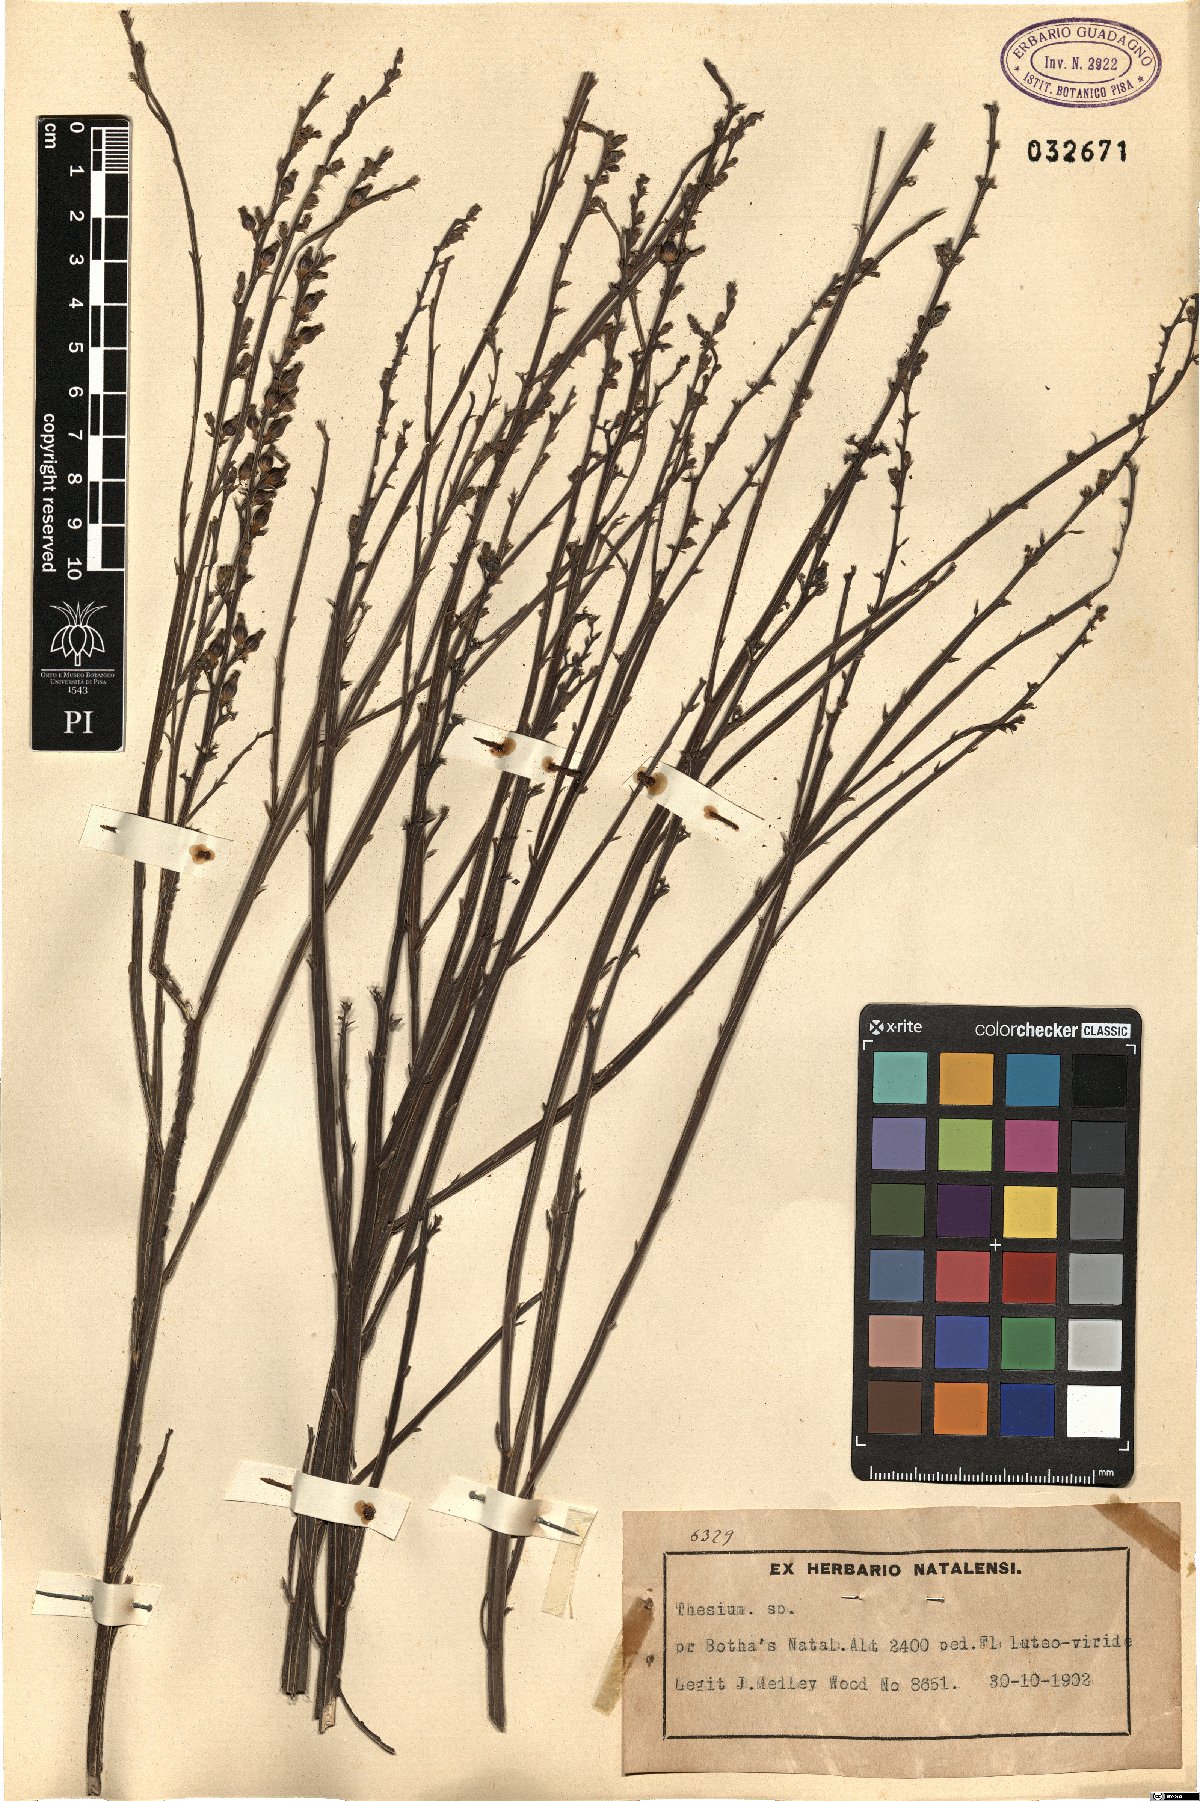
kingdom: Plantae
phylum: Tracheophyta
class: Magnoliopsida
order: Santalales
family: Thesiaceae
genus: Thesium
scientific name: Thesium
